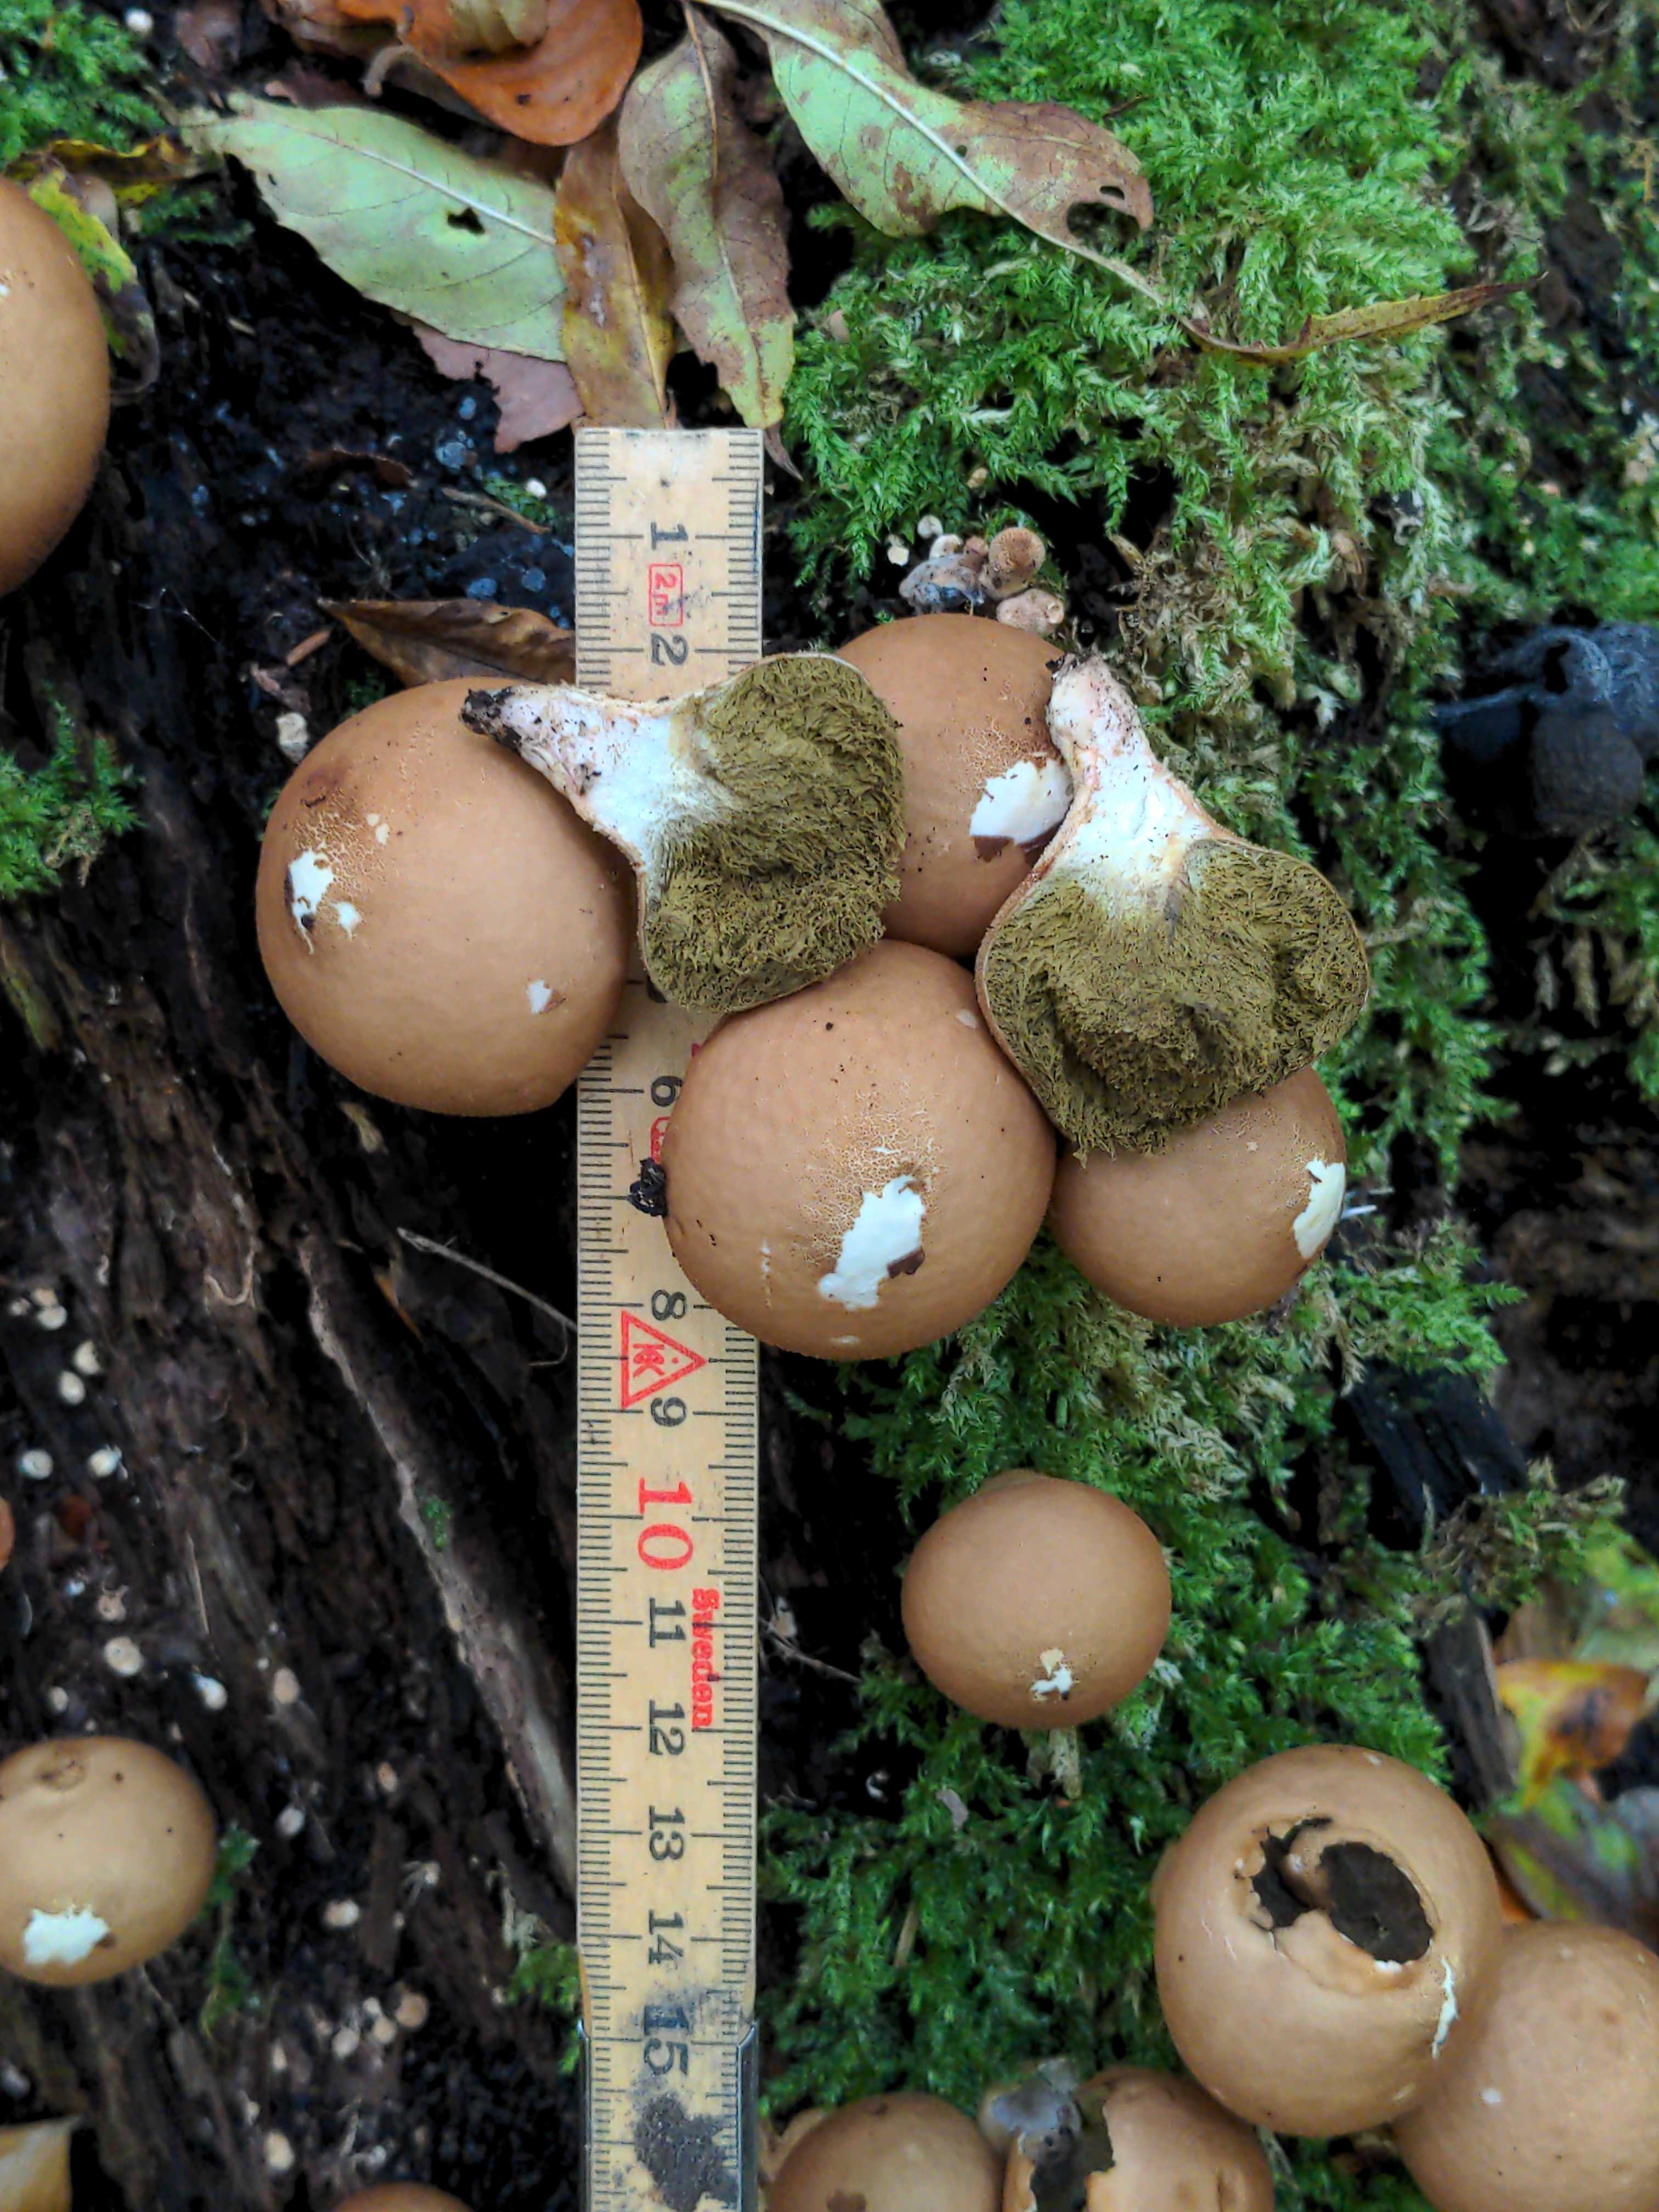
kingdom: Fungi
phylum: Basidiomycota
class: Agaricomycetes
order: Agaricales
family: Lycoperdaceae
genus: Apioperdon
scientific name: Apioperdon pyriforme
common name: pære-støvbold
